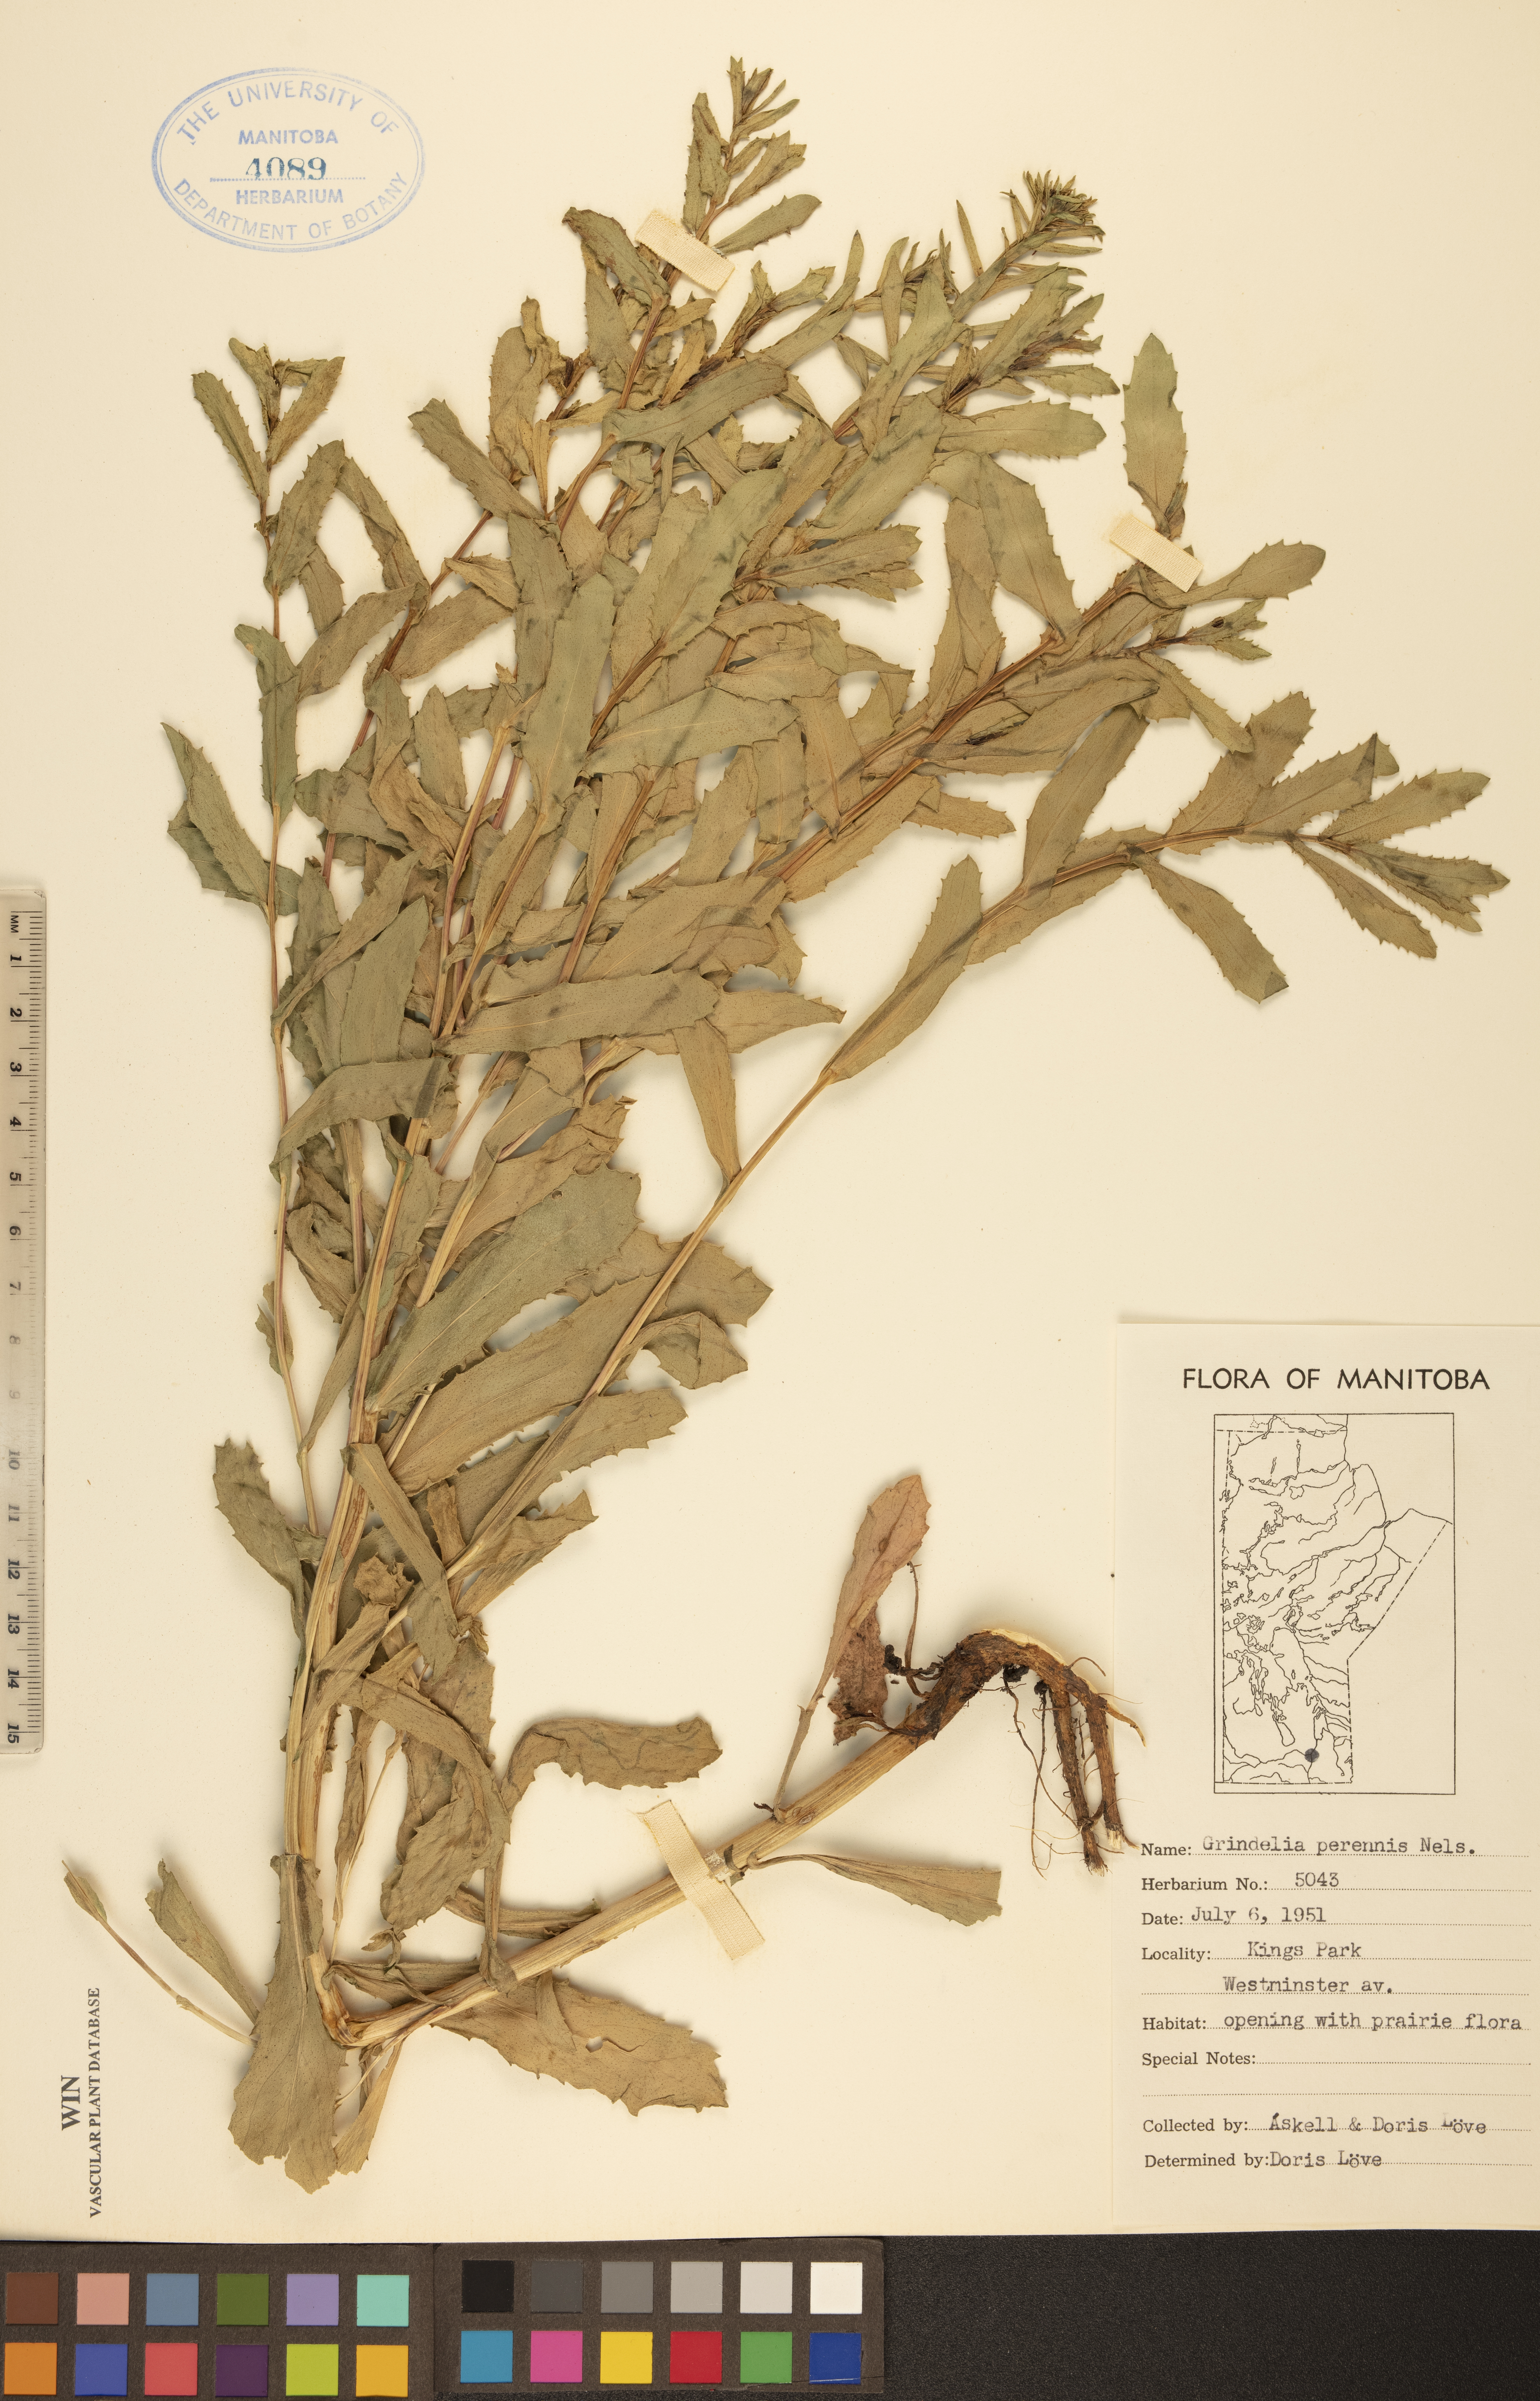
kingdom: Plantae
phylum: Tracheophyta
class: Magnoliopsida
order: Asterales
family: Asteraceae
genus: Grindelia
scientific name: Grindelia hirsutula
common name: Hairy gumweed
